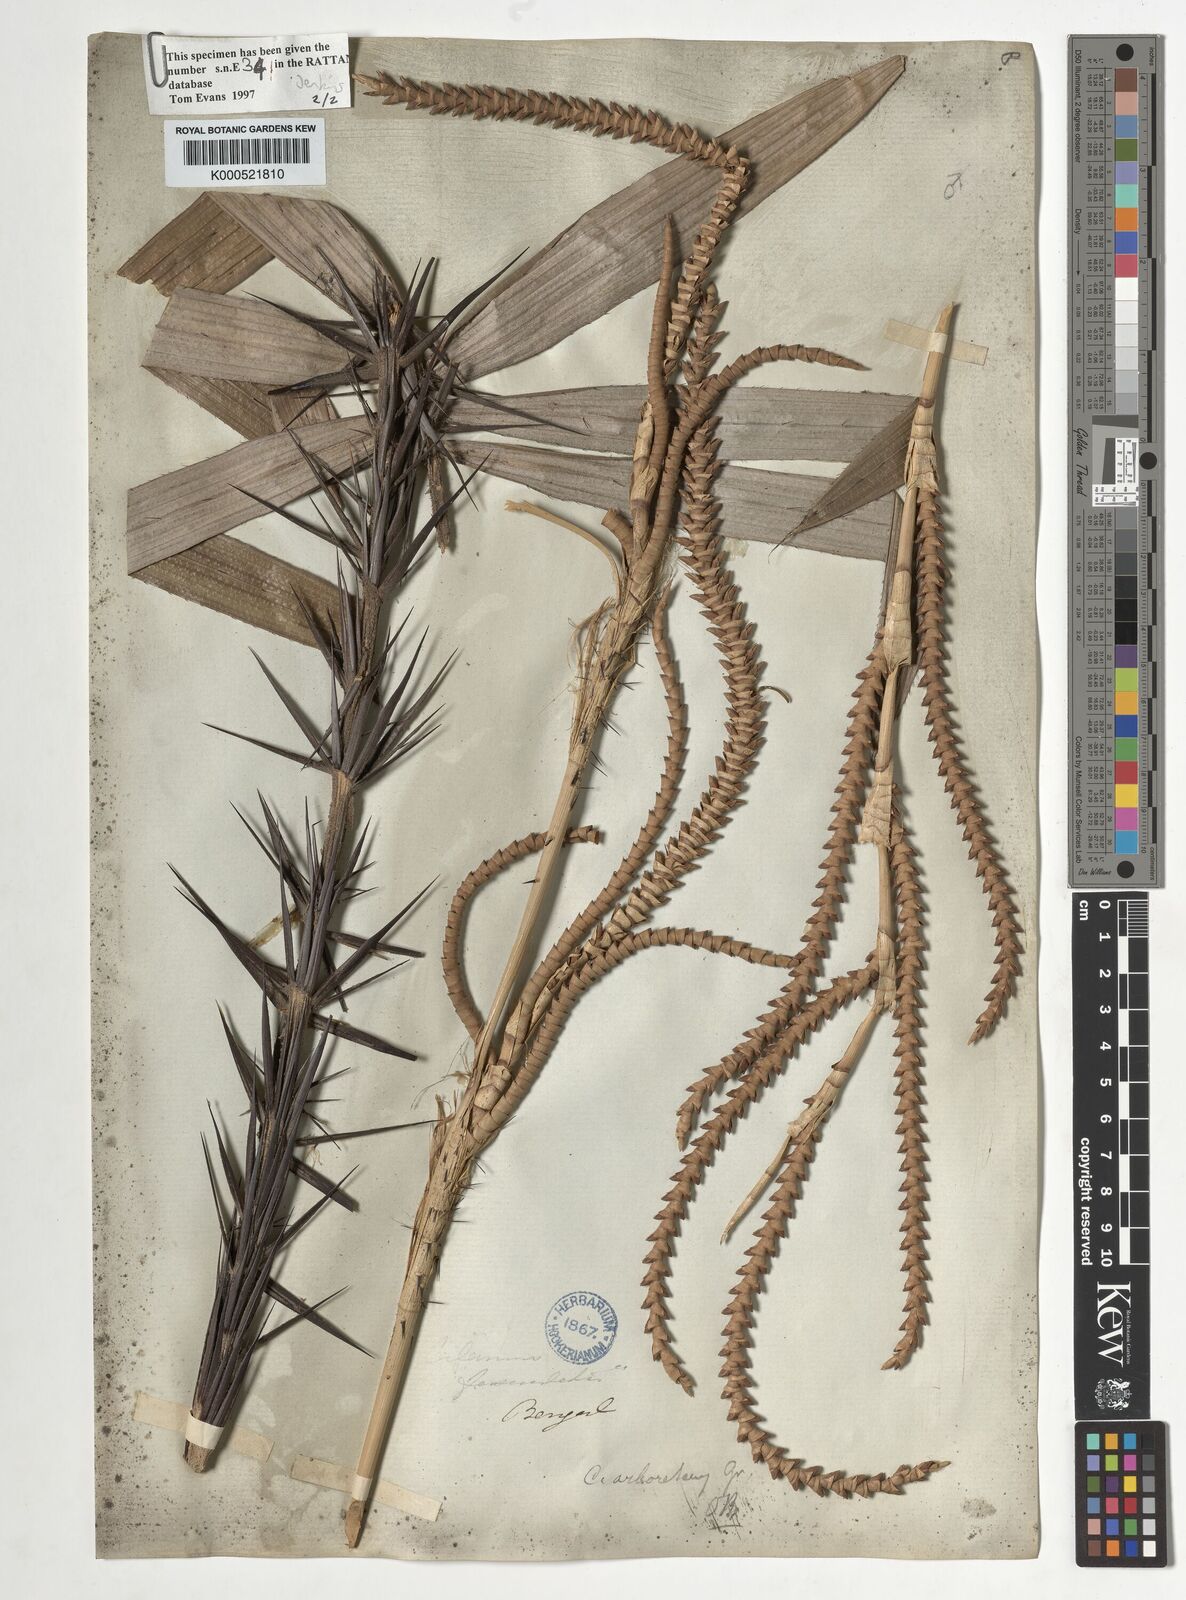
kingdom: Plantae
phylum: Tracheophyta
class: Liliopsida
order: Arecales
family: Arecaceae
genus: Calamus
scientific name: Calamus arborescens
